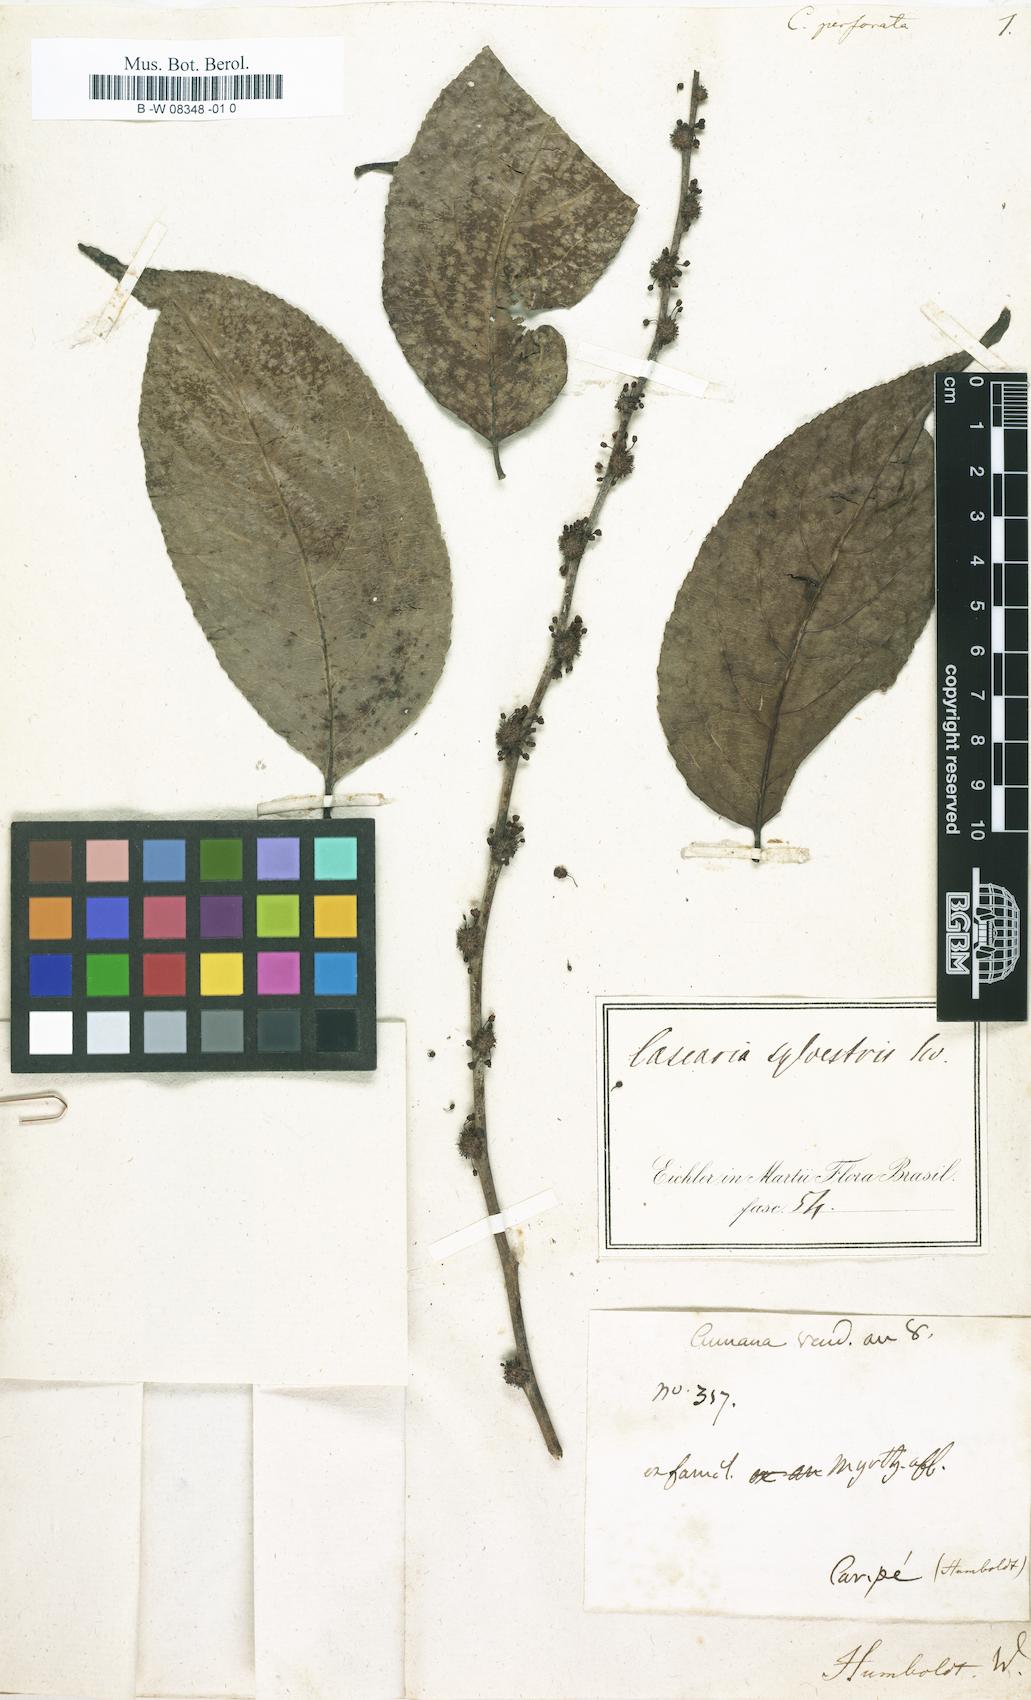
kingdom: Plantae
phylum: Tracheophyta
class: Magnoliopsida
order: Malpighiales
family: Salicaceae
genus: Casearia
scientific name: Casearia
